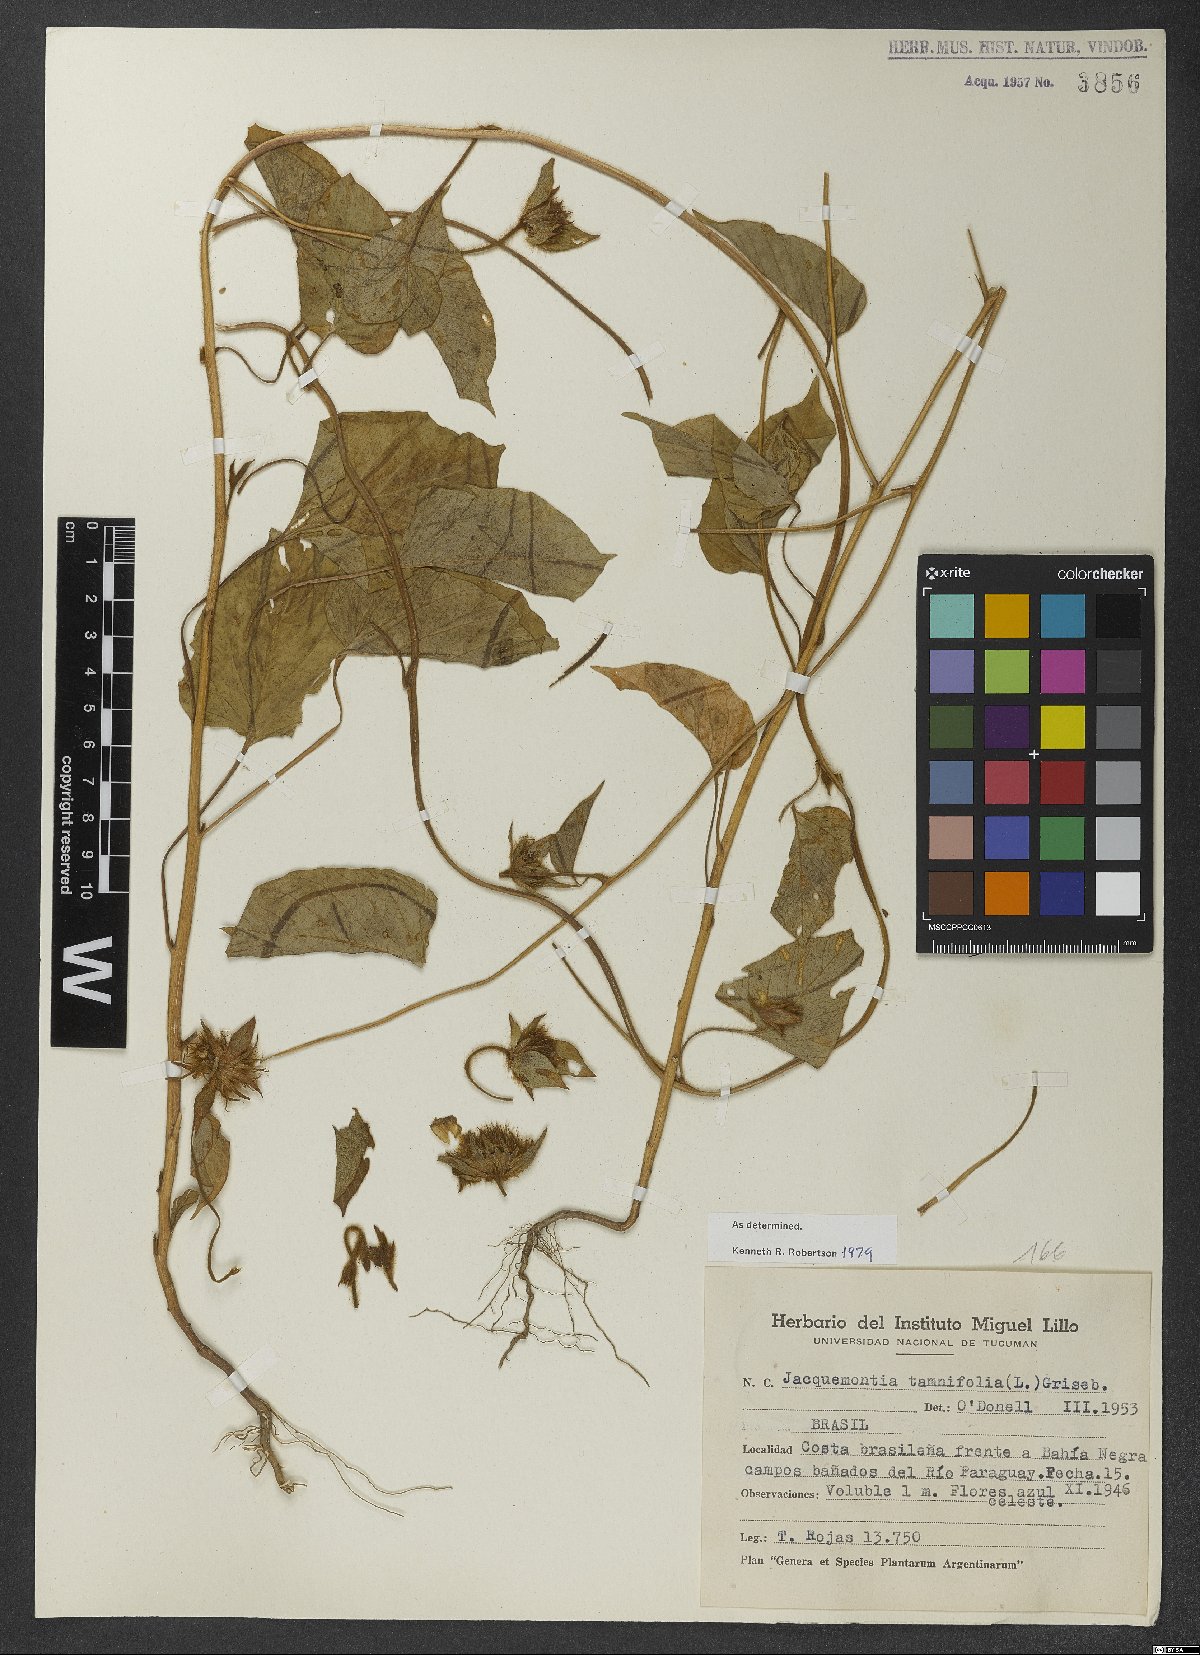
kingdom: Plantae
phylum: Tracheophyta
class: Magnoliopsida
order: Solanales
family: Convolvulaceae
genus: Jacquemontia
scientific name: Jacquemontia tamnifolia
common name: Hairy clustervine
